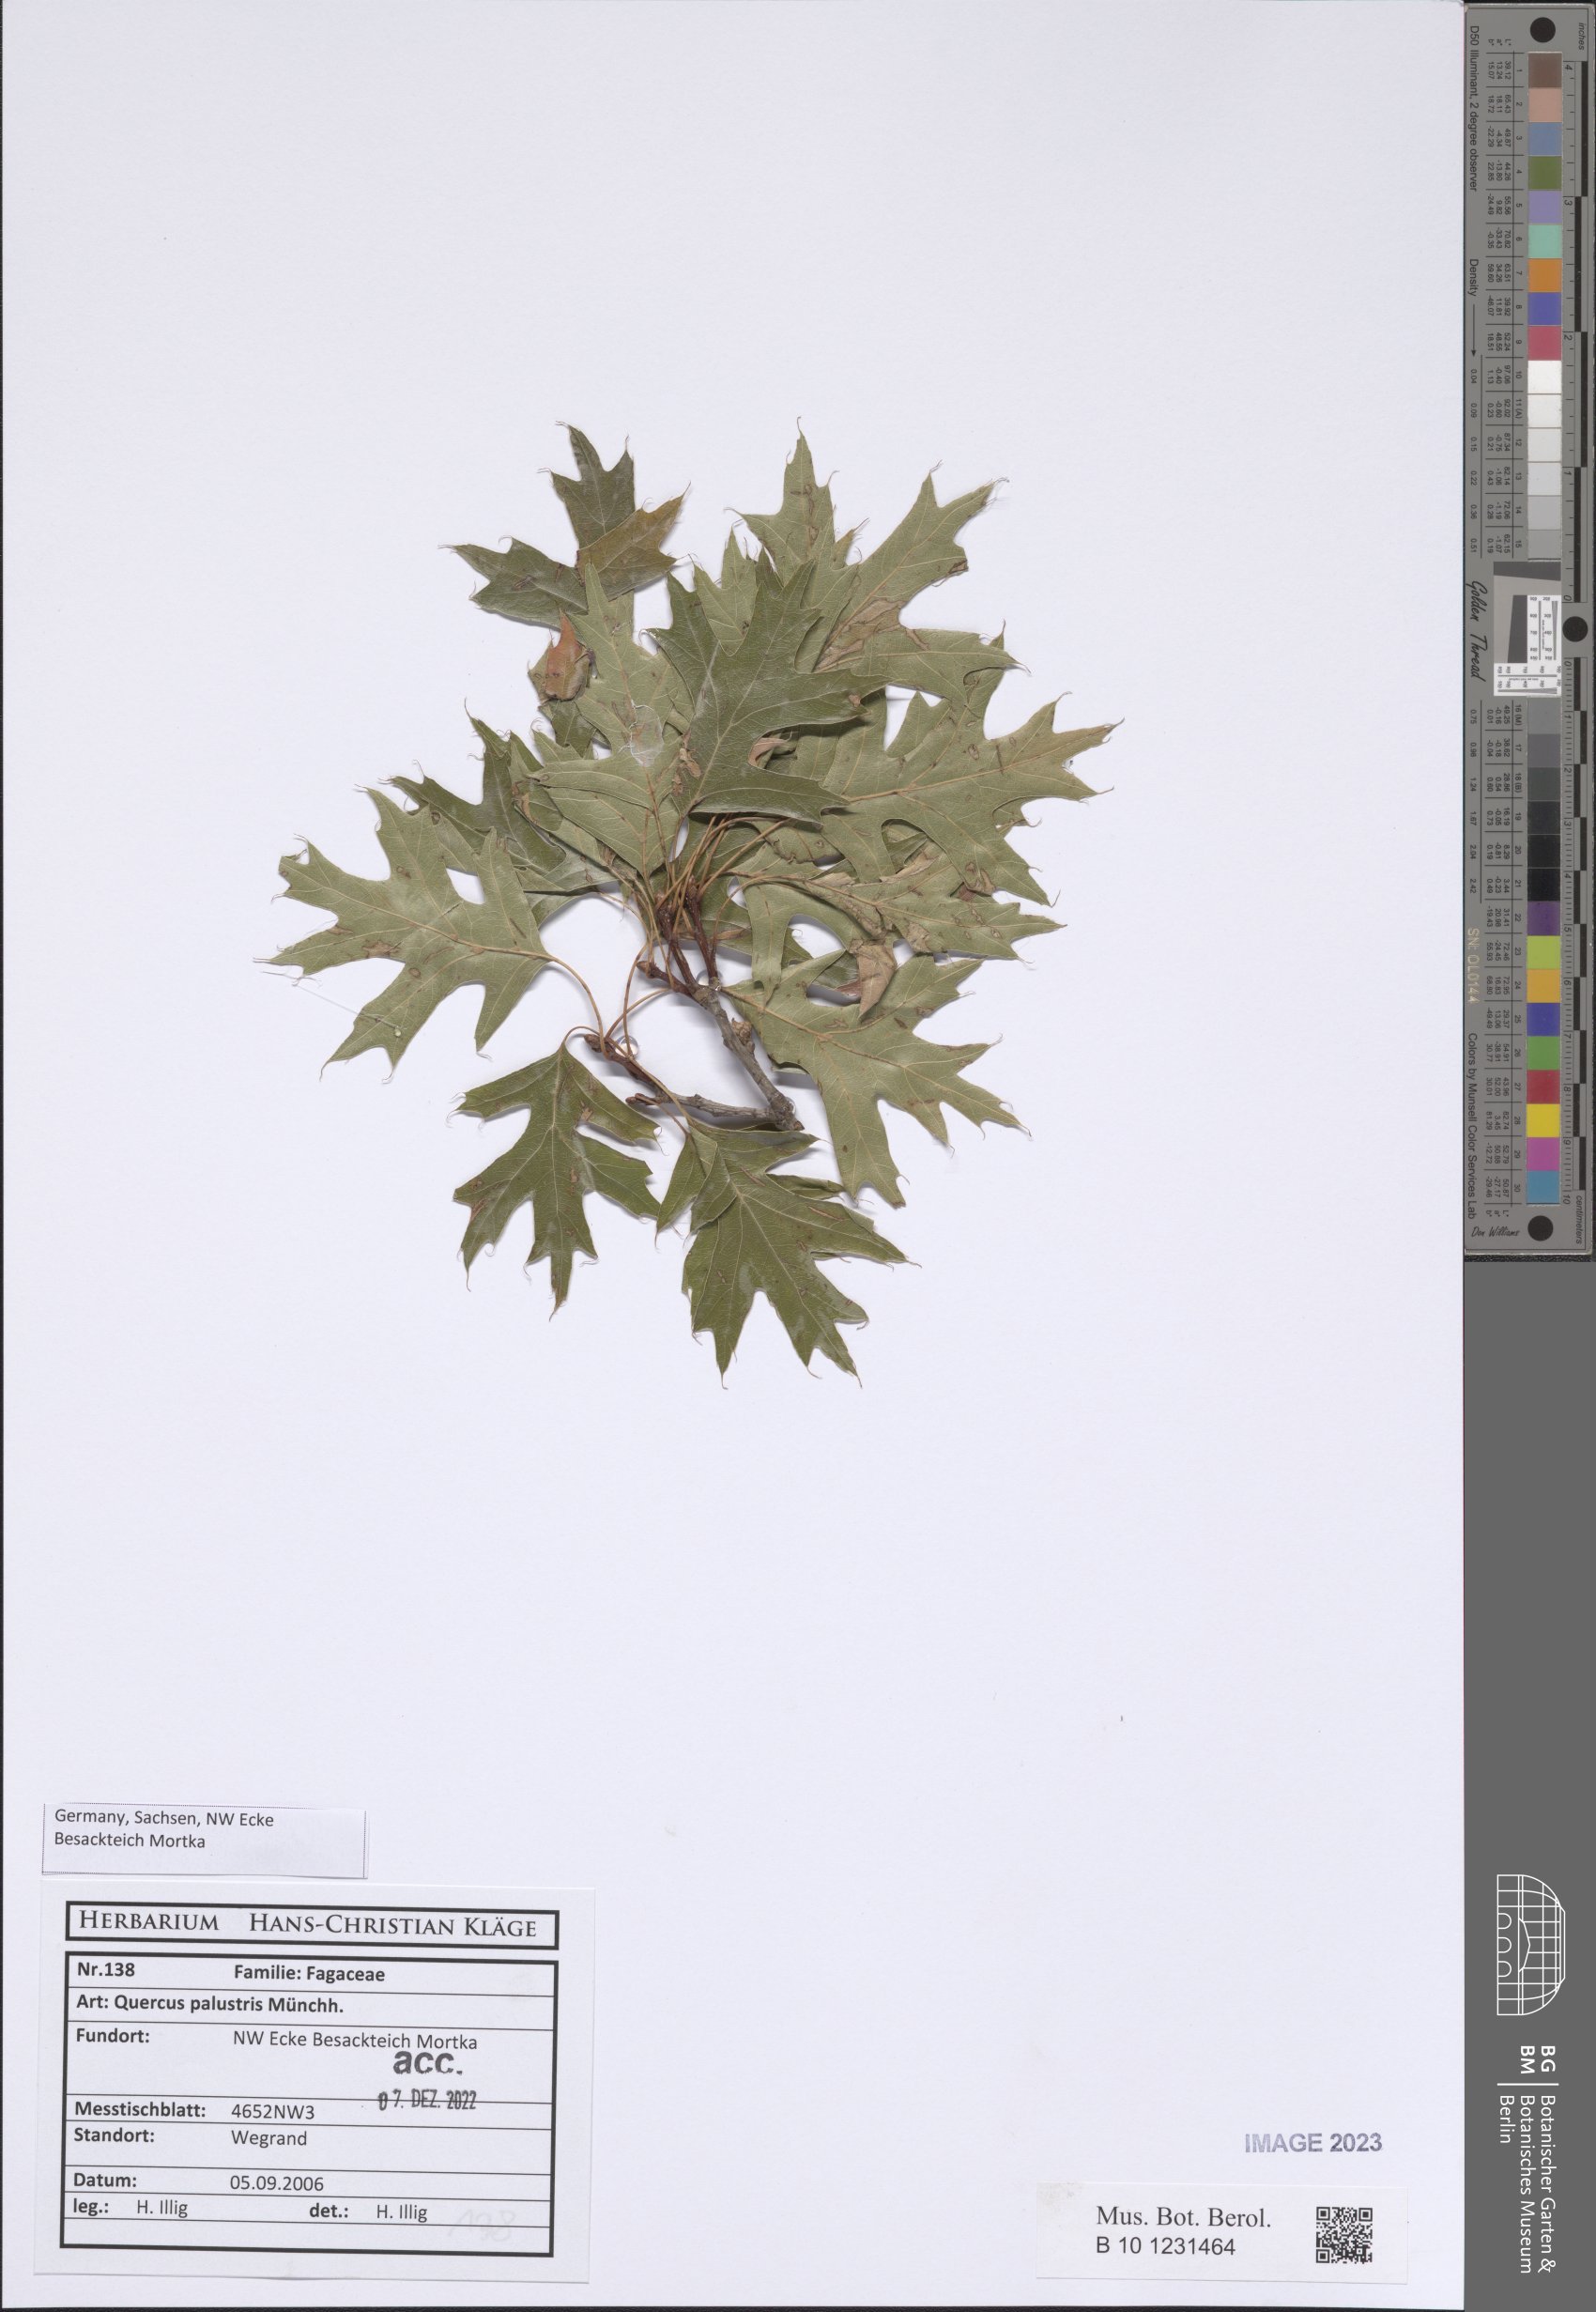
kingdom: Plantae
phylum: Tracheophyta
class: Magnoliopsida
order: Fagales
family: Fagaceae
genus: Quercus
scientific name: Quercus palustris
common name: Pin oak
